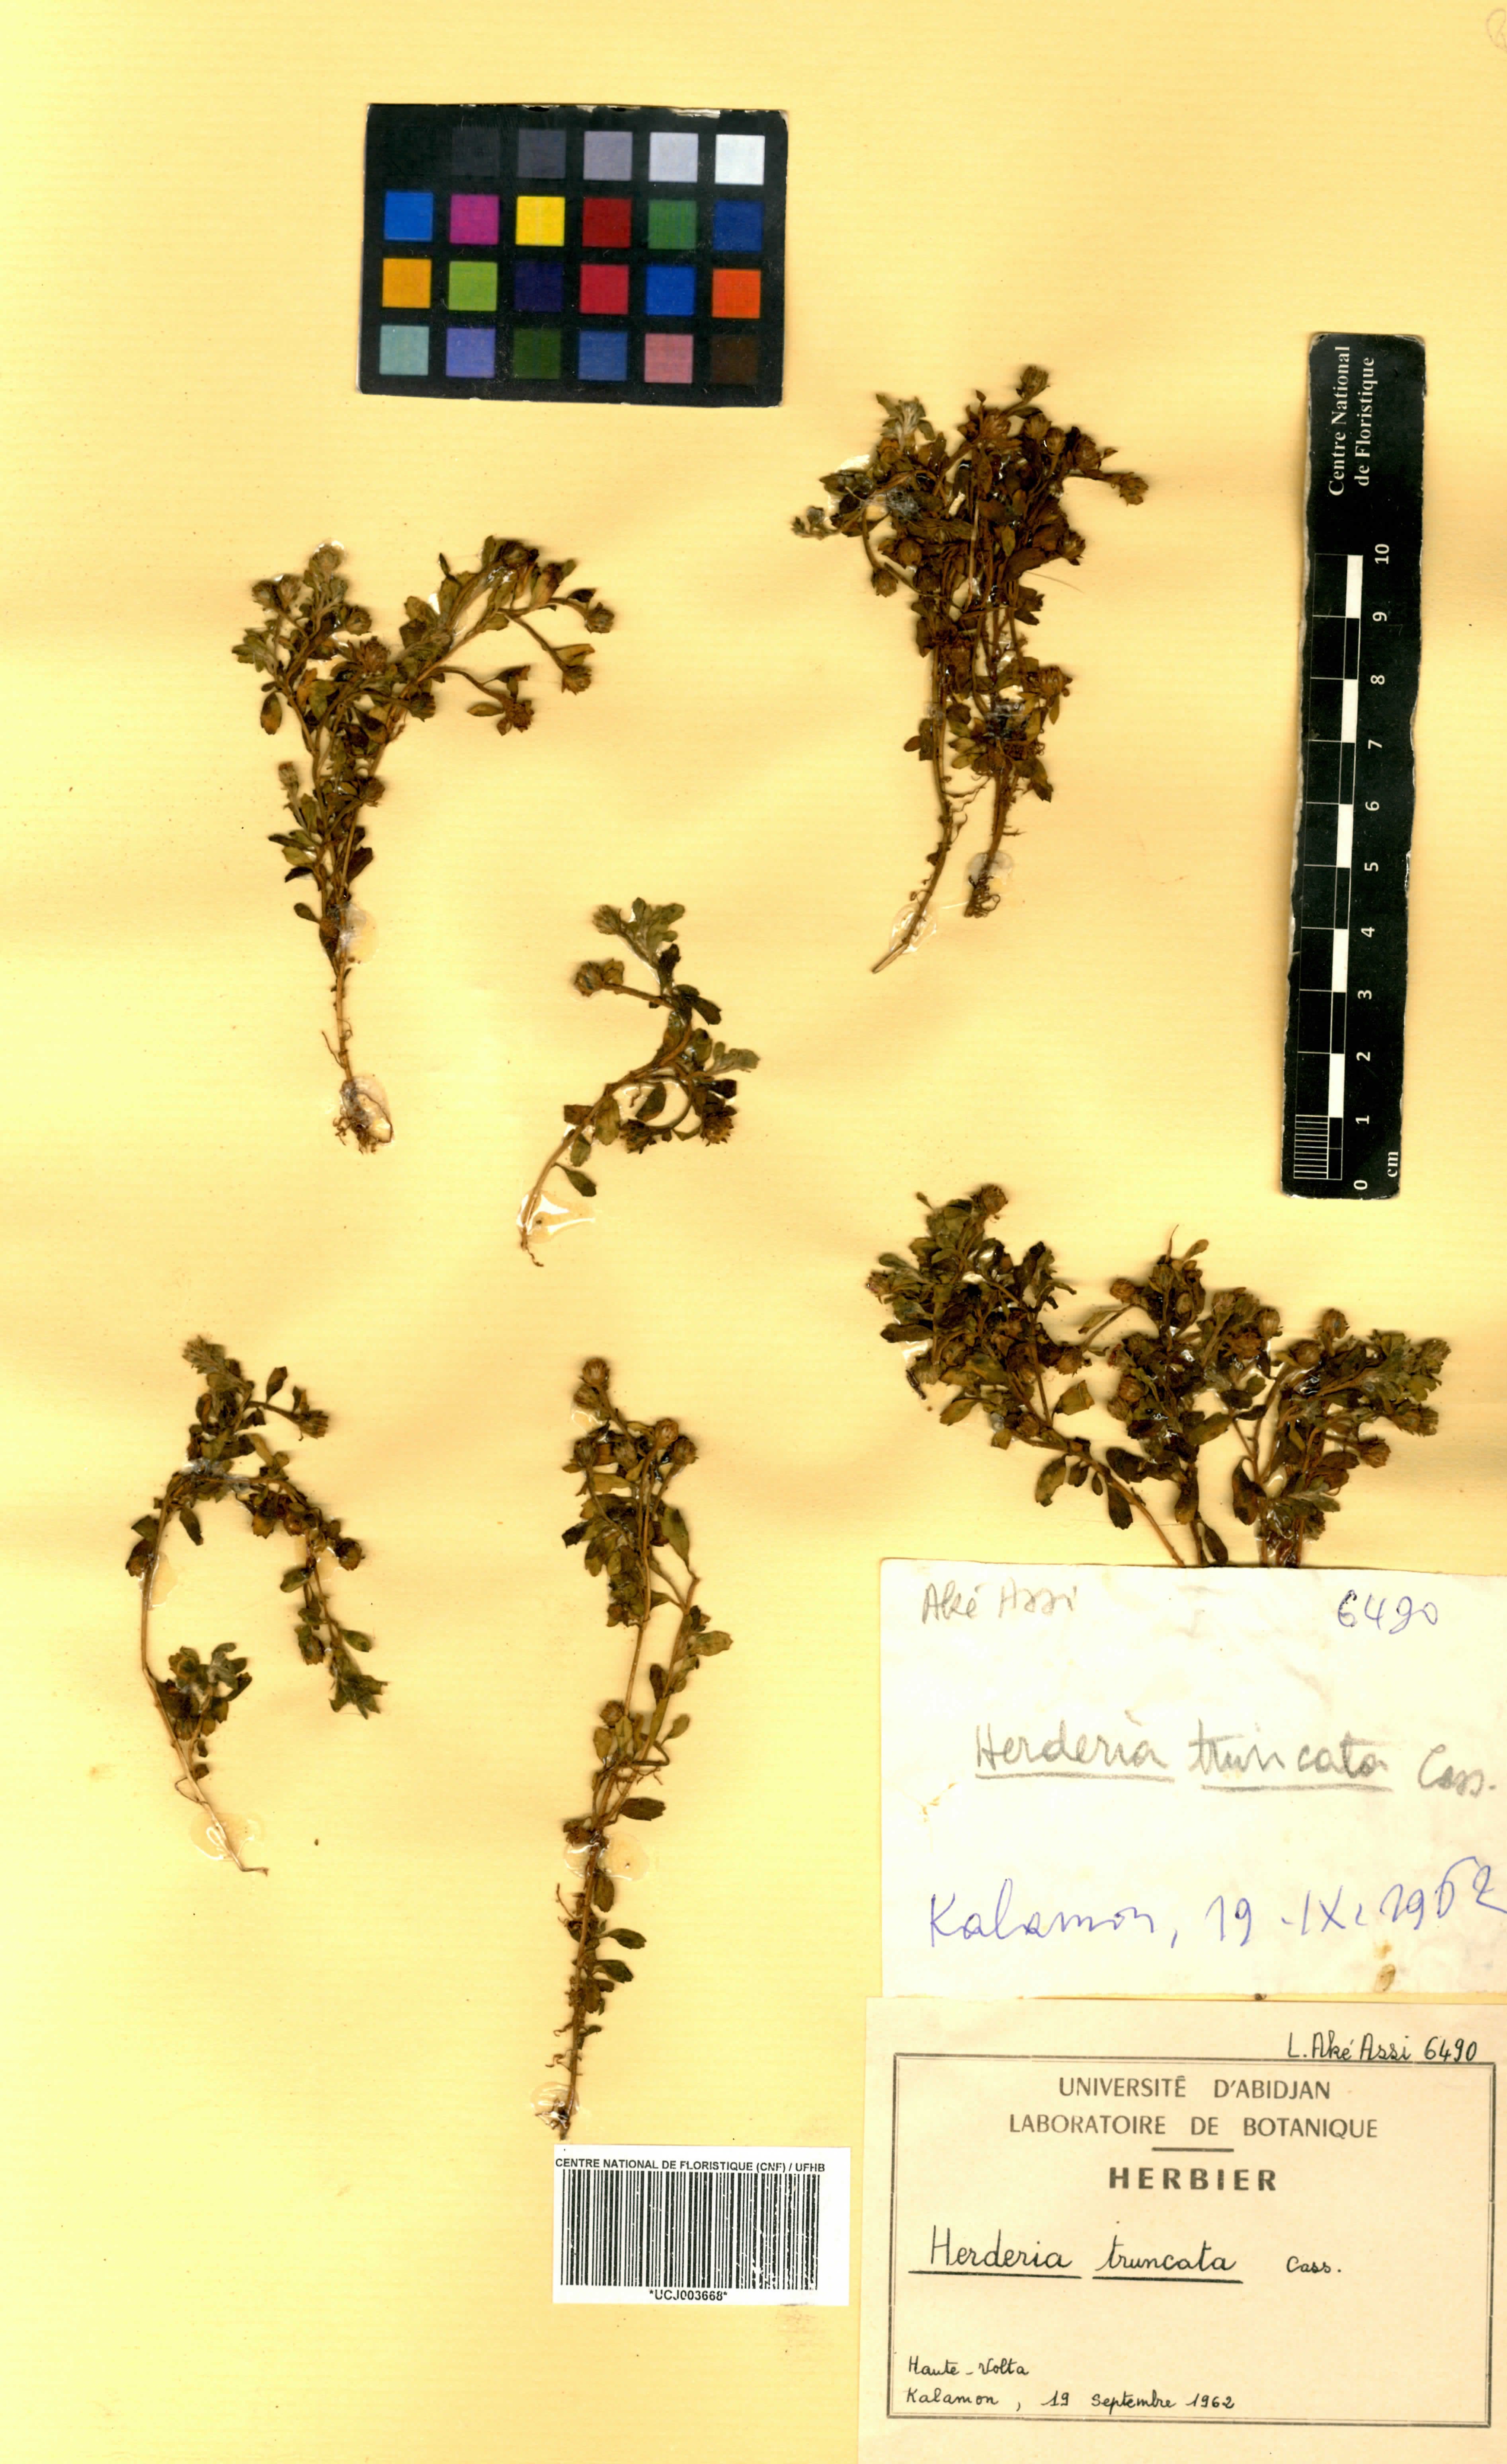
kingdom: Plantae
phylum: Tracheophyta
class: Magnoliopsida
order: Asterales
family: Asteraceae
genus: Herderia
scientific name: Herderia truncata
